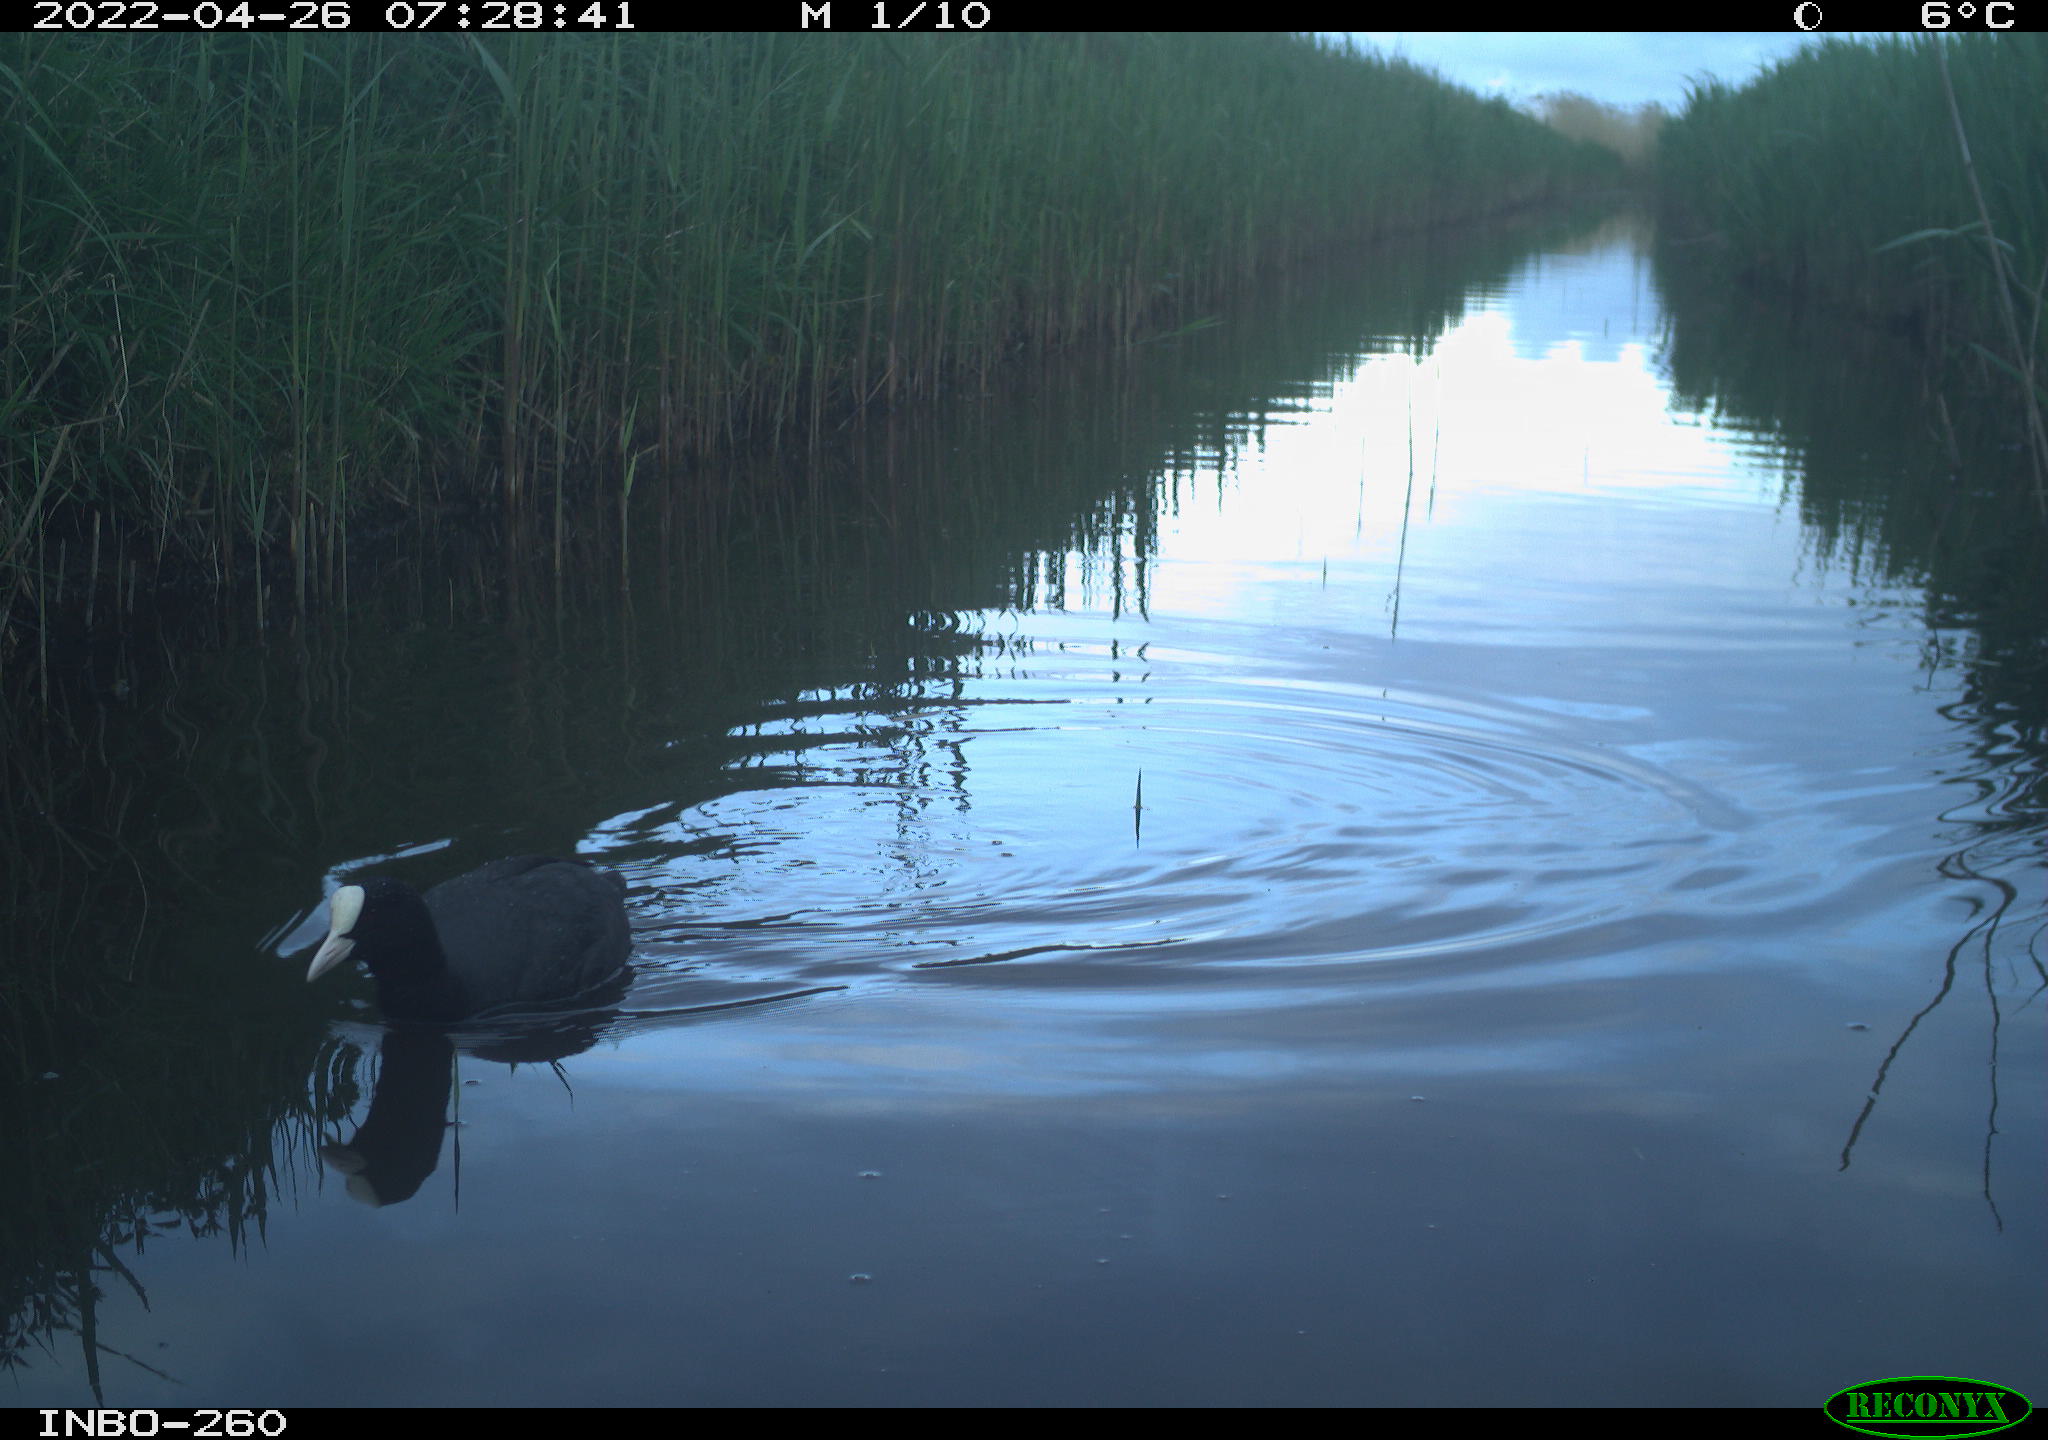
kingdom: Animalia
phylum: Chordata
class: Aves
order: Gruiformes
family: Rallidae
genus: Fulica
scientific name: Fulica atra
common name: Eurasian coot
